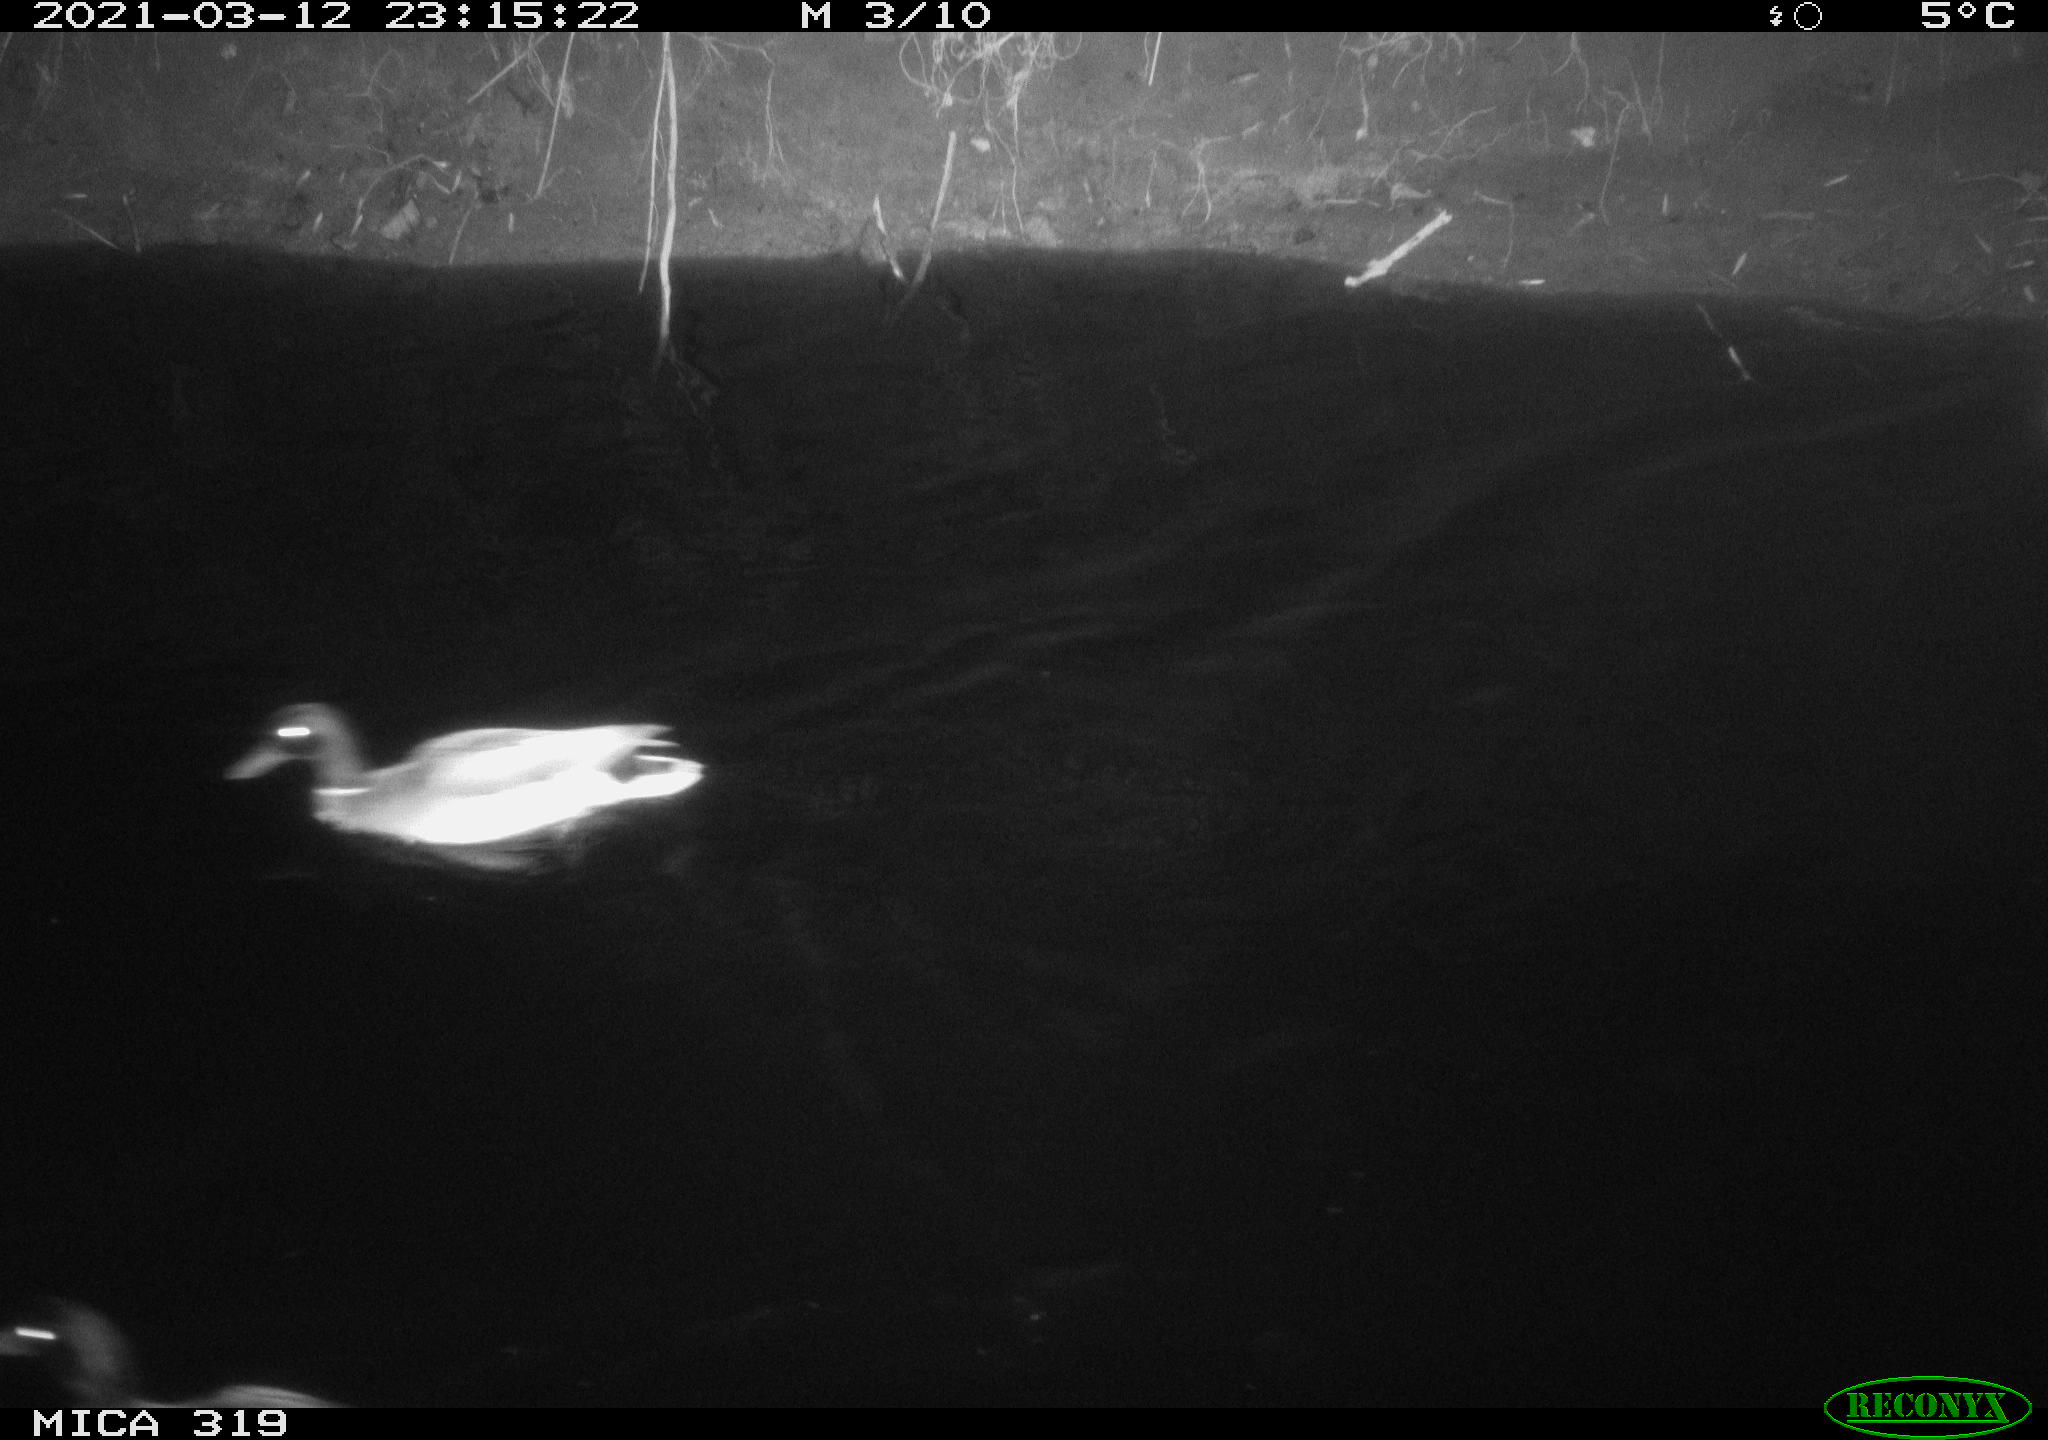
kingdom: Animalia
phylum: Chordata
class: Aves
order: Anseriformes
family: Anatidae
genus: Anas
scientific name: Anas platyrhynchos
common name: Mallard
